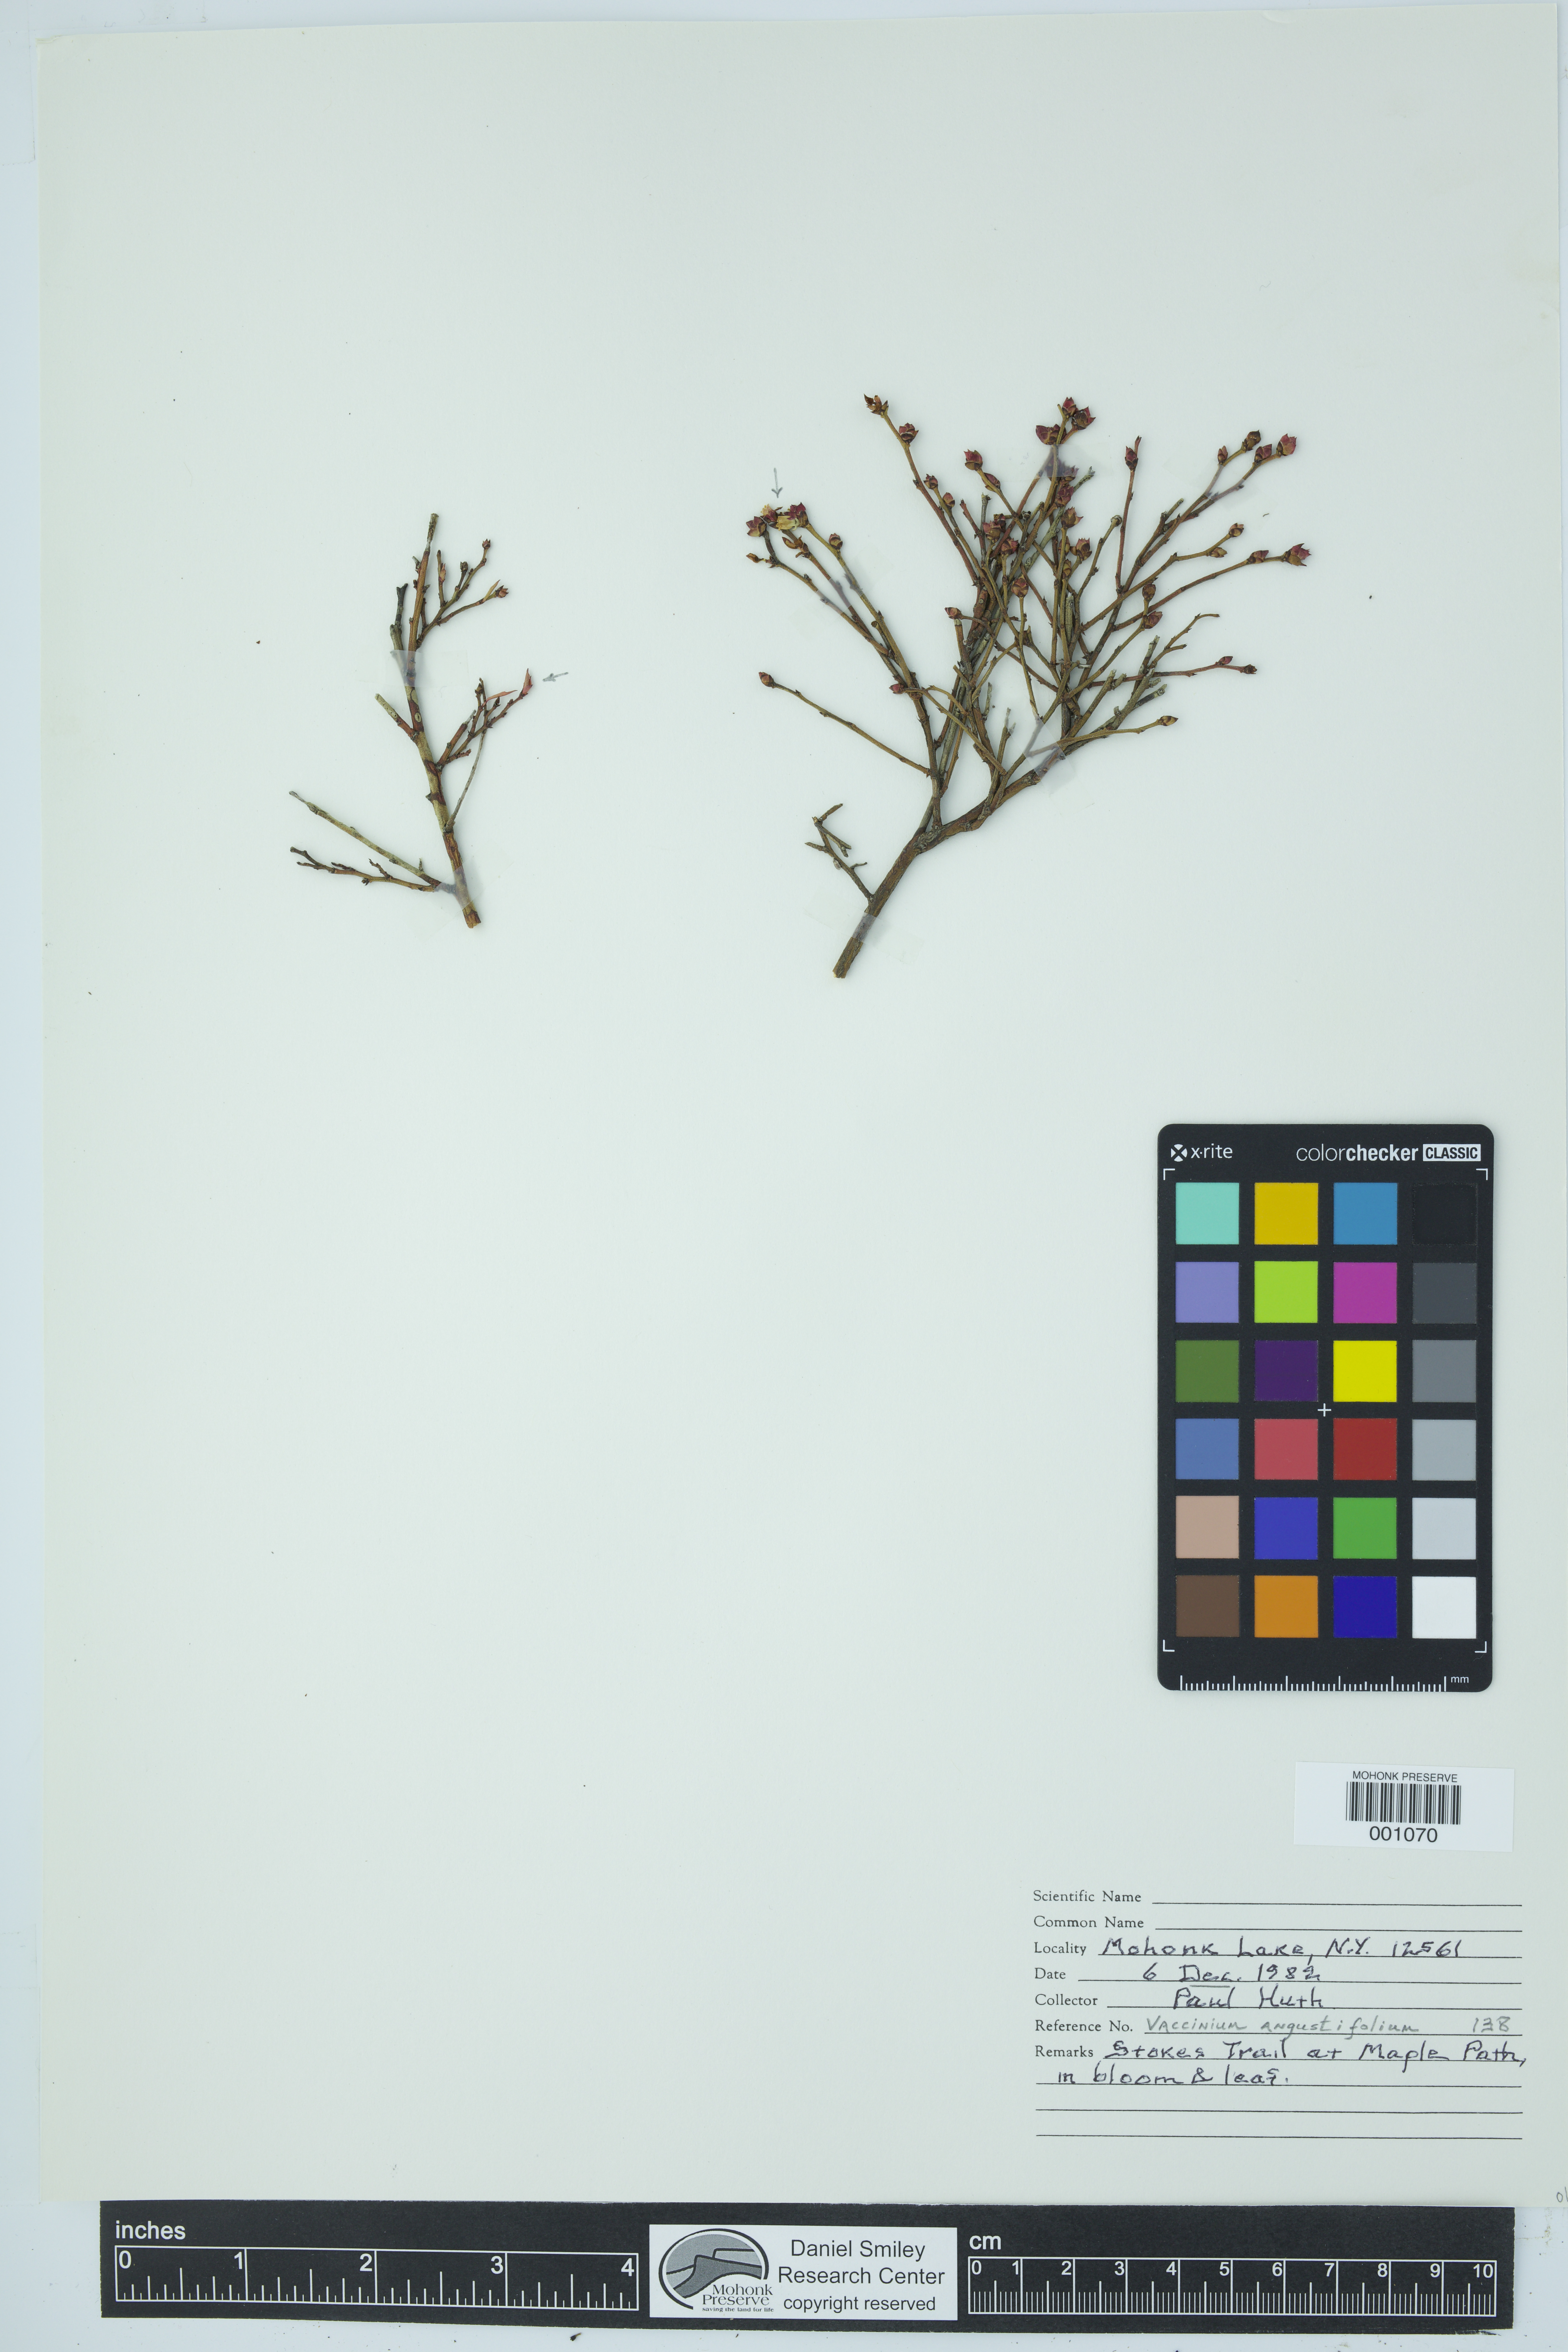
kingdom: Plantae
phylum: Tracheophyta
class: Magnoliopsida
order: Ericales
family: Ericaceae
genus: Vaccinium
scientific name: Vaccinium angustifolium
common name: Early lowbush blueberry
